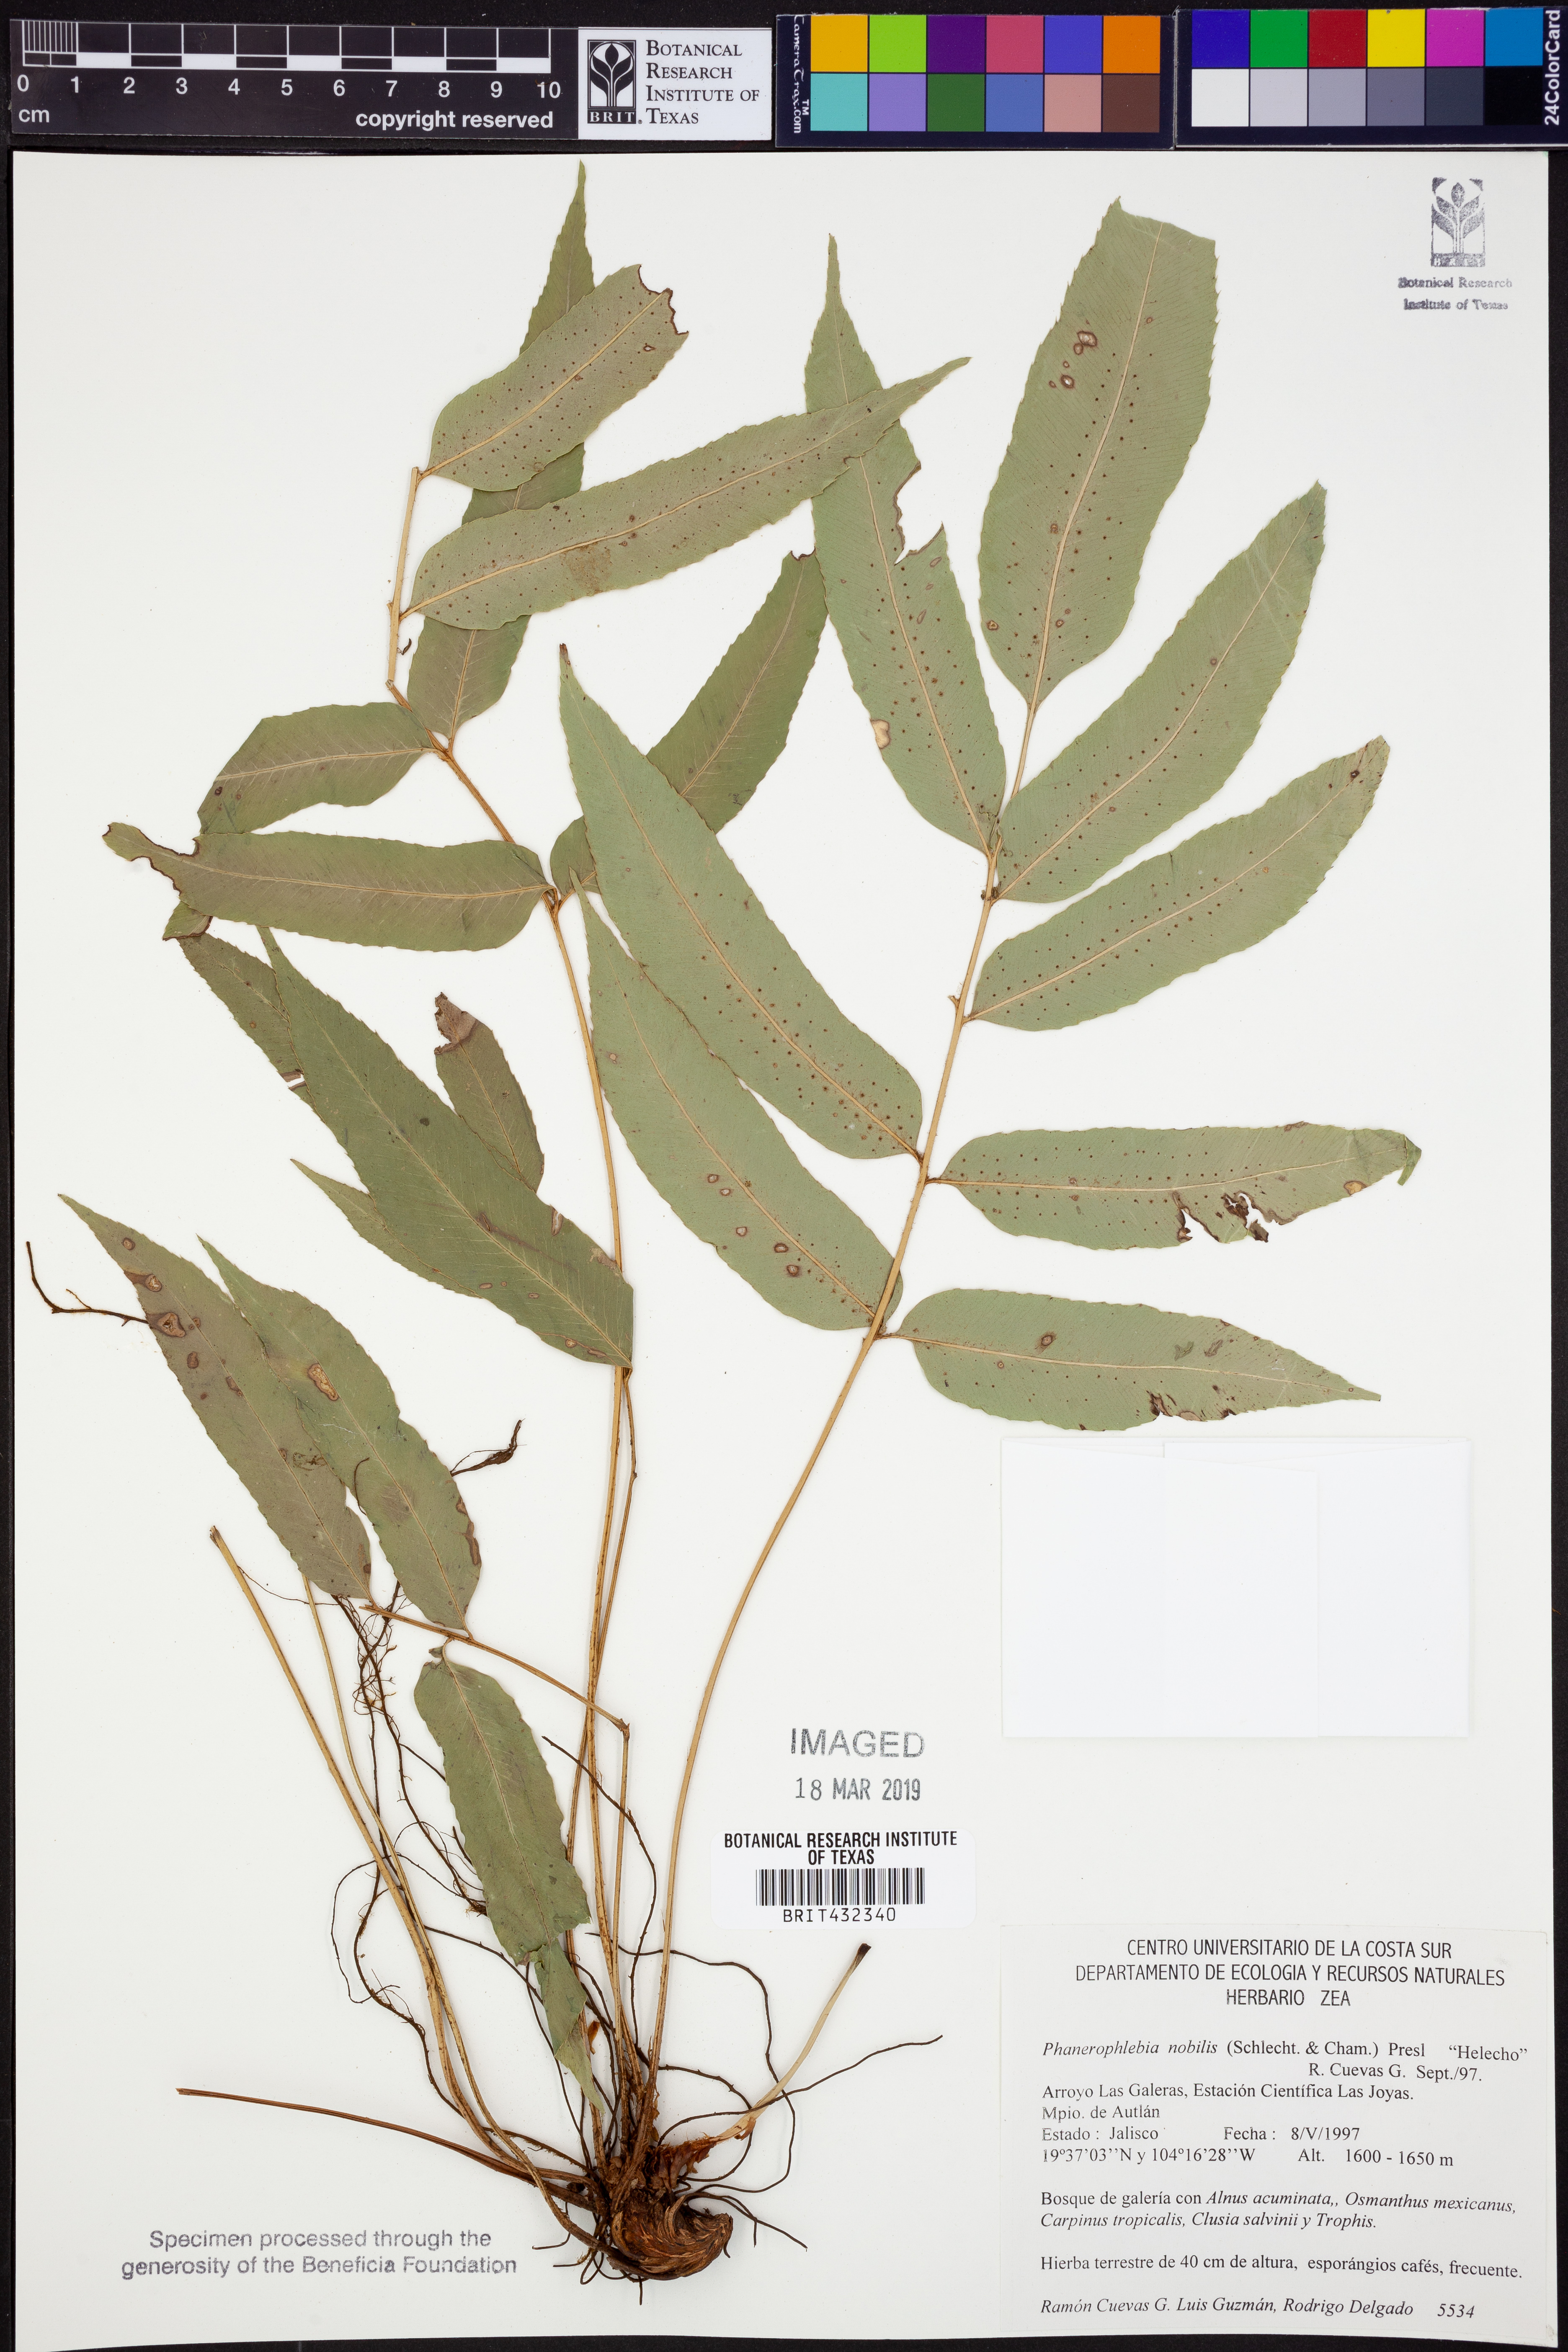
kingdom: Plantae
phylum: Tracheophyta
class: Polypodiopsida
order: Polypodiales
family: Dryopteridaceae
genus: Phanerophlebia
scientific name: Phanerophlebia nobilis
